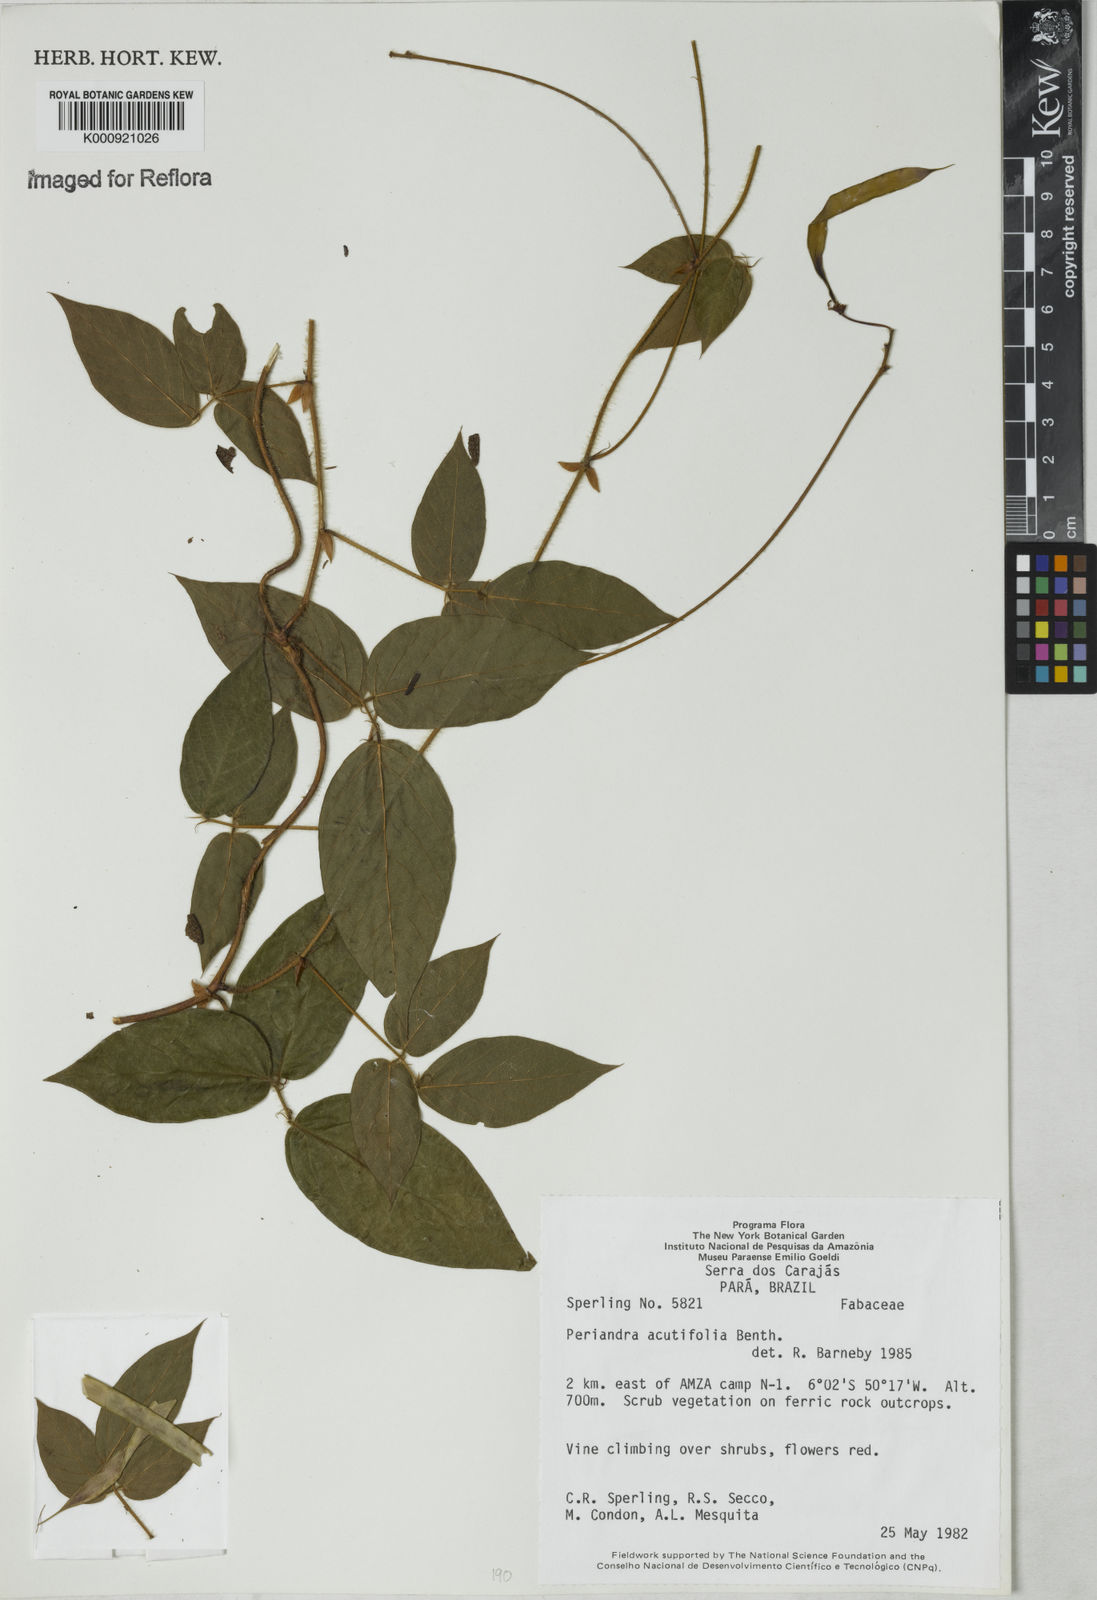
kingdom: Plantae
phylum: Tracheophyta
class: Magnoliopsida
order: Fabales
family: Fabaceae
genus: Periandra
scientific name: Periandra coccinea
